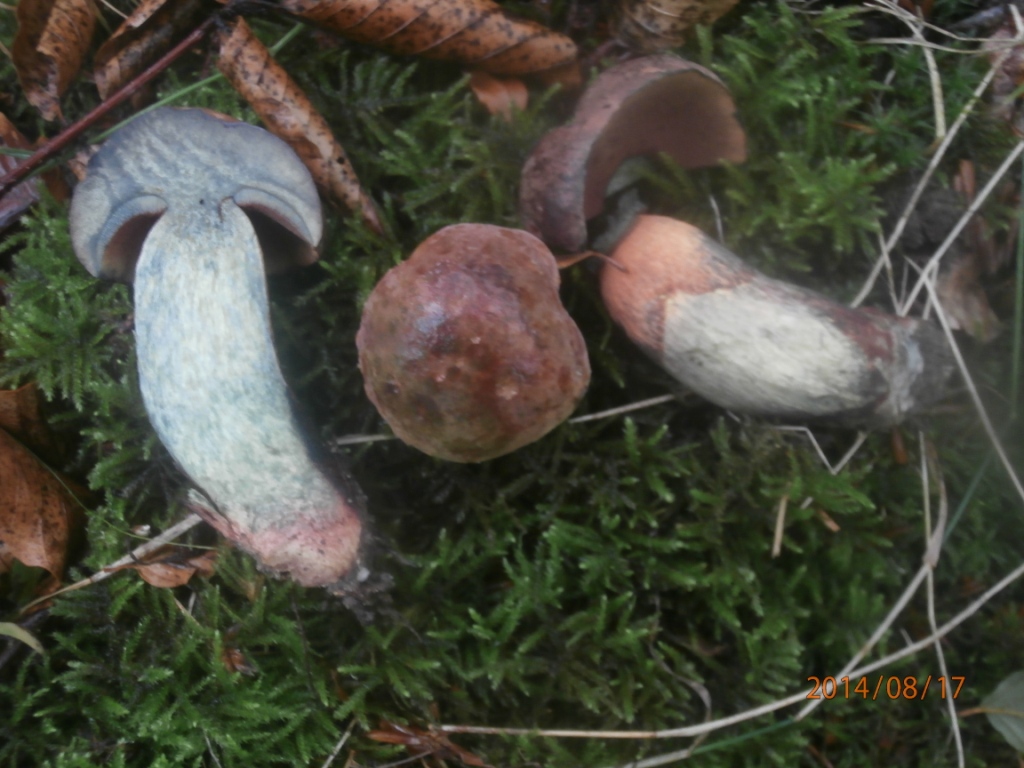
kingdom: Fungi
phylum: Basidiomycota
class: Agaricomycetes
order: Boletales
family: Boletaceae
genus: Suillellus
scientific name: Suillellus queletii
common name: glatstokket indigorørhat
